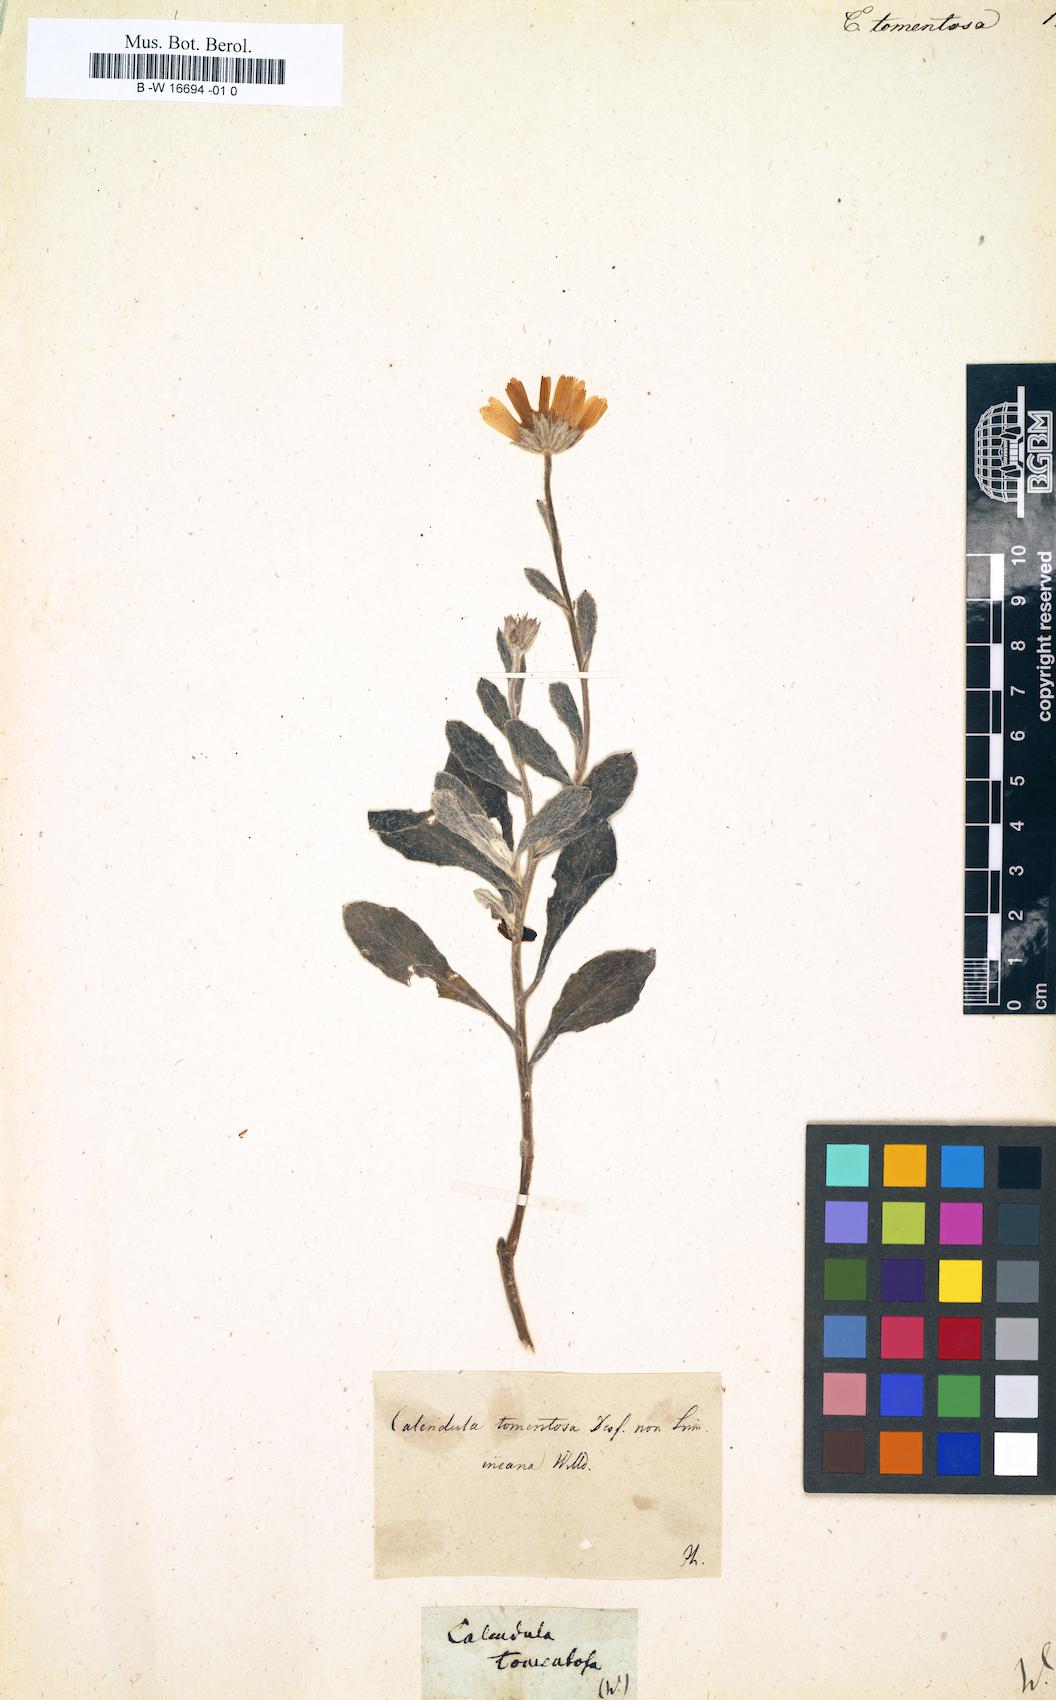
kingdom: Plantae
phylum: Tracheophyta
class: Magnoliopsida
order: Asterales
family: Asteraceae
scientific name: Asteraceae
